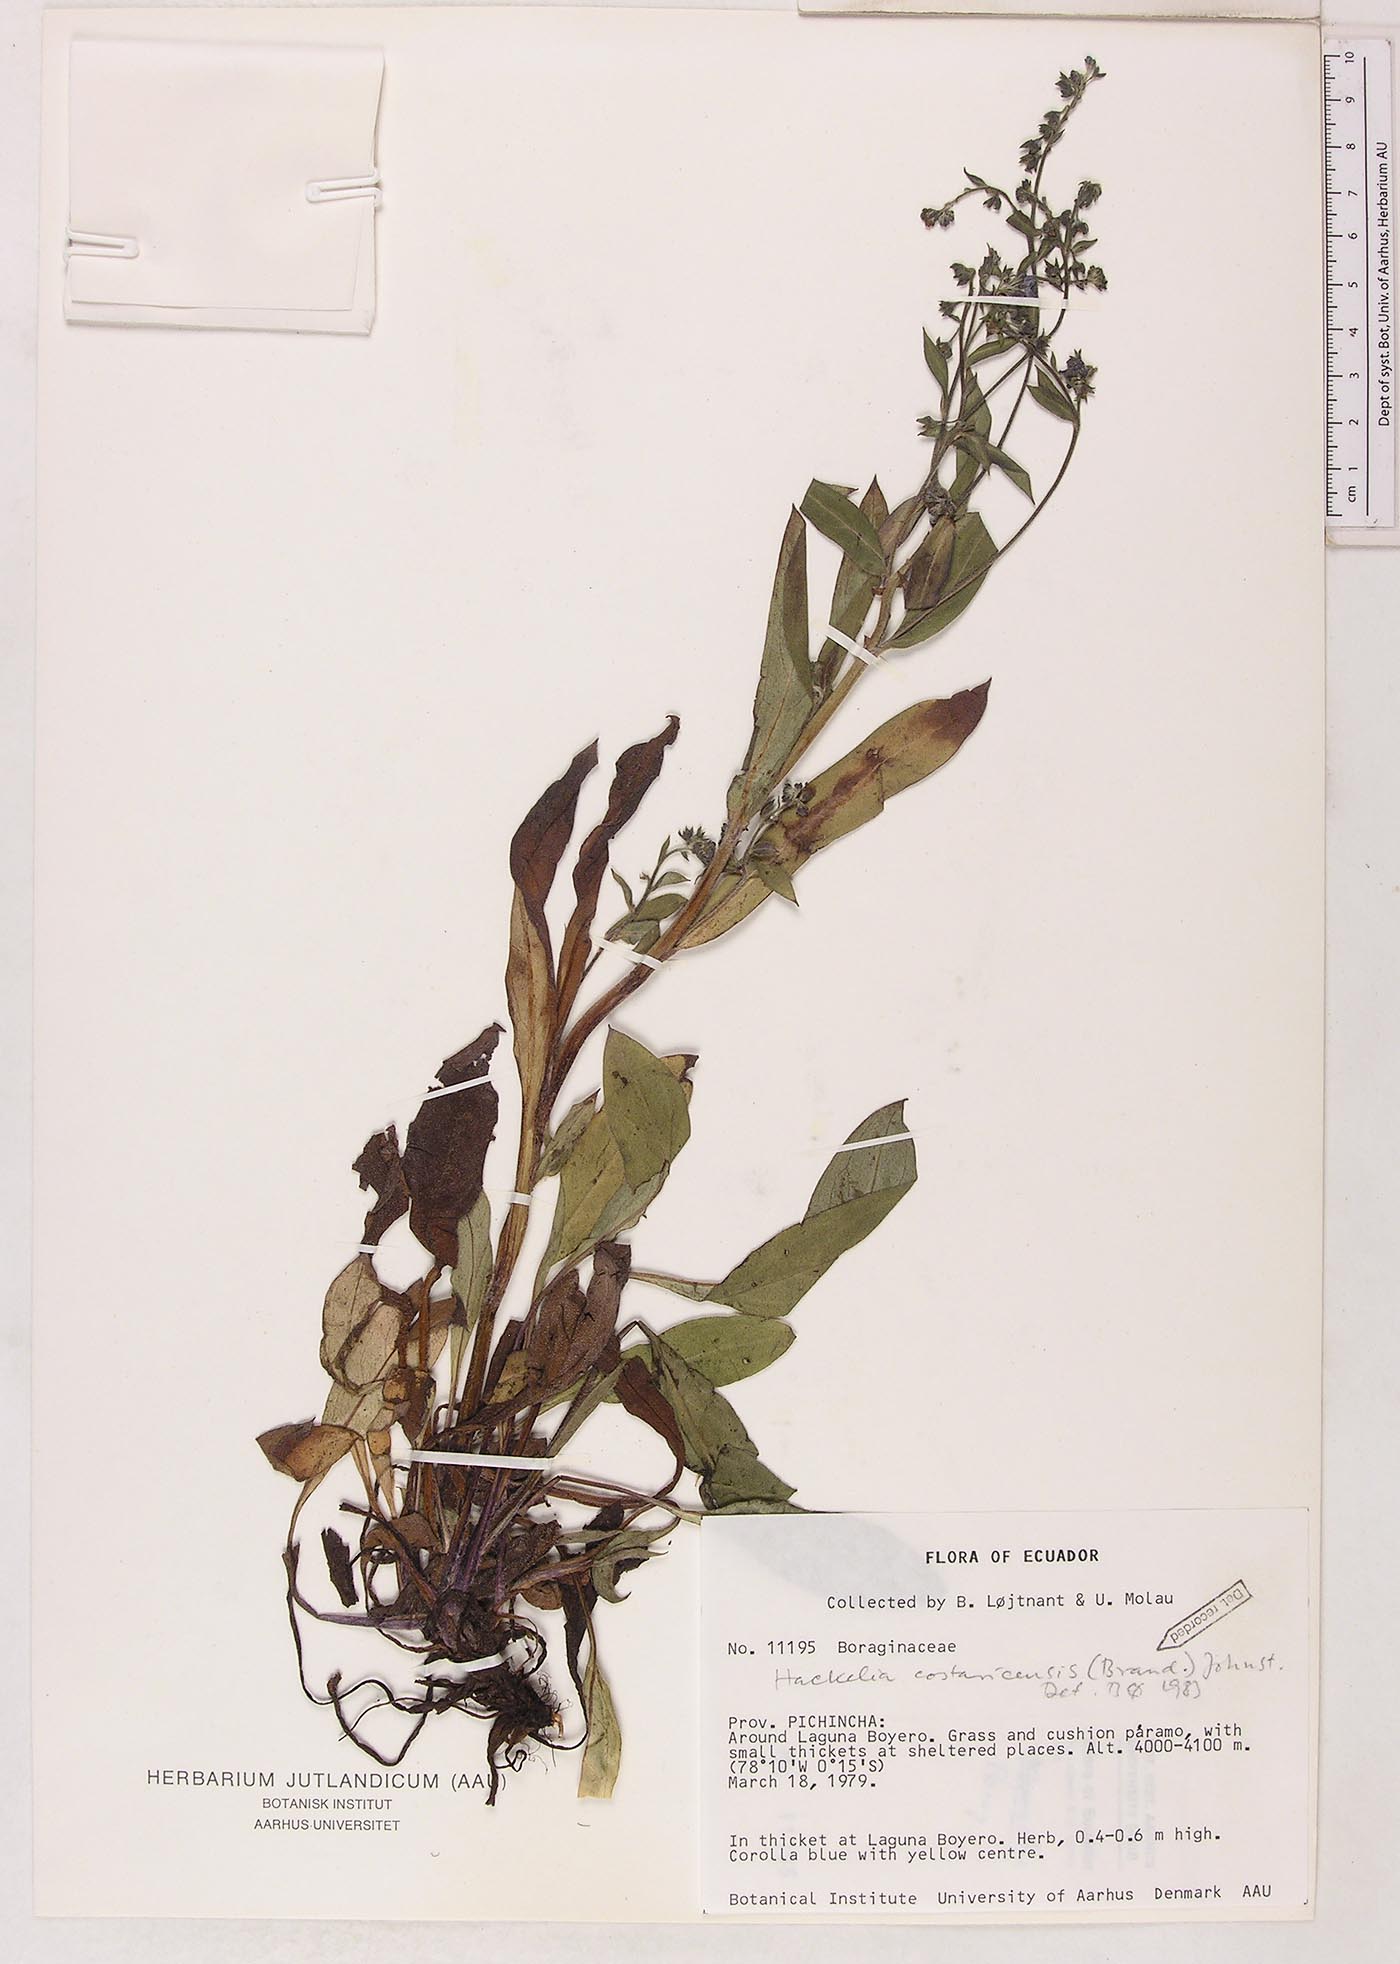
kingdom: Plantae
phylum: Tracheophyta
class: Magnoliopsida
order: Boraginales
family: Boraginaceae
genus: Hackelia
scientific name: Hackelia revoluta
